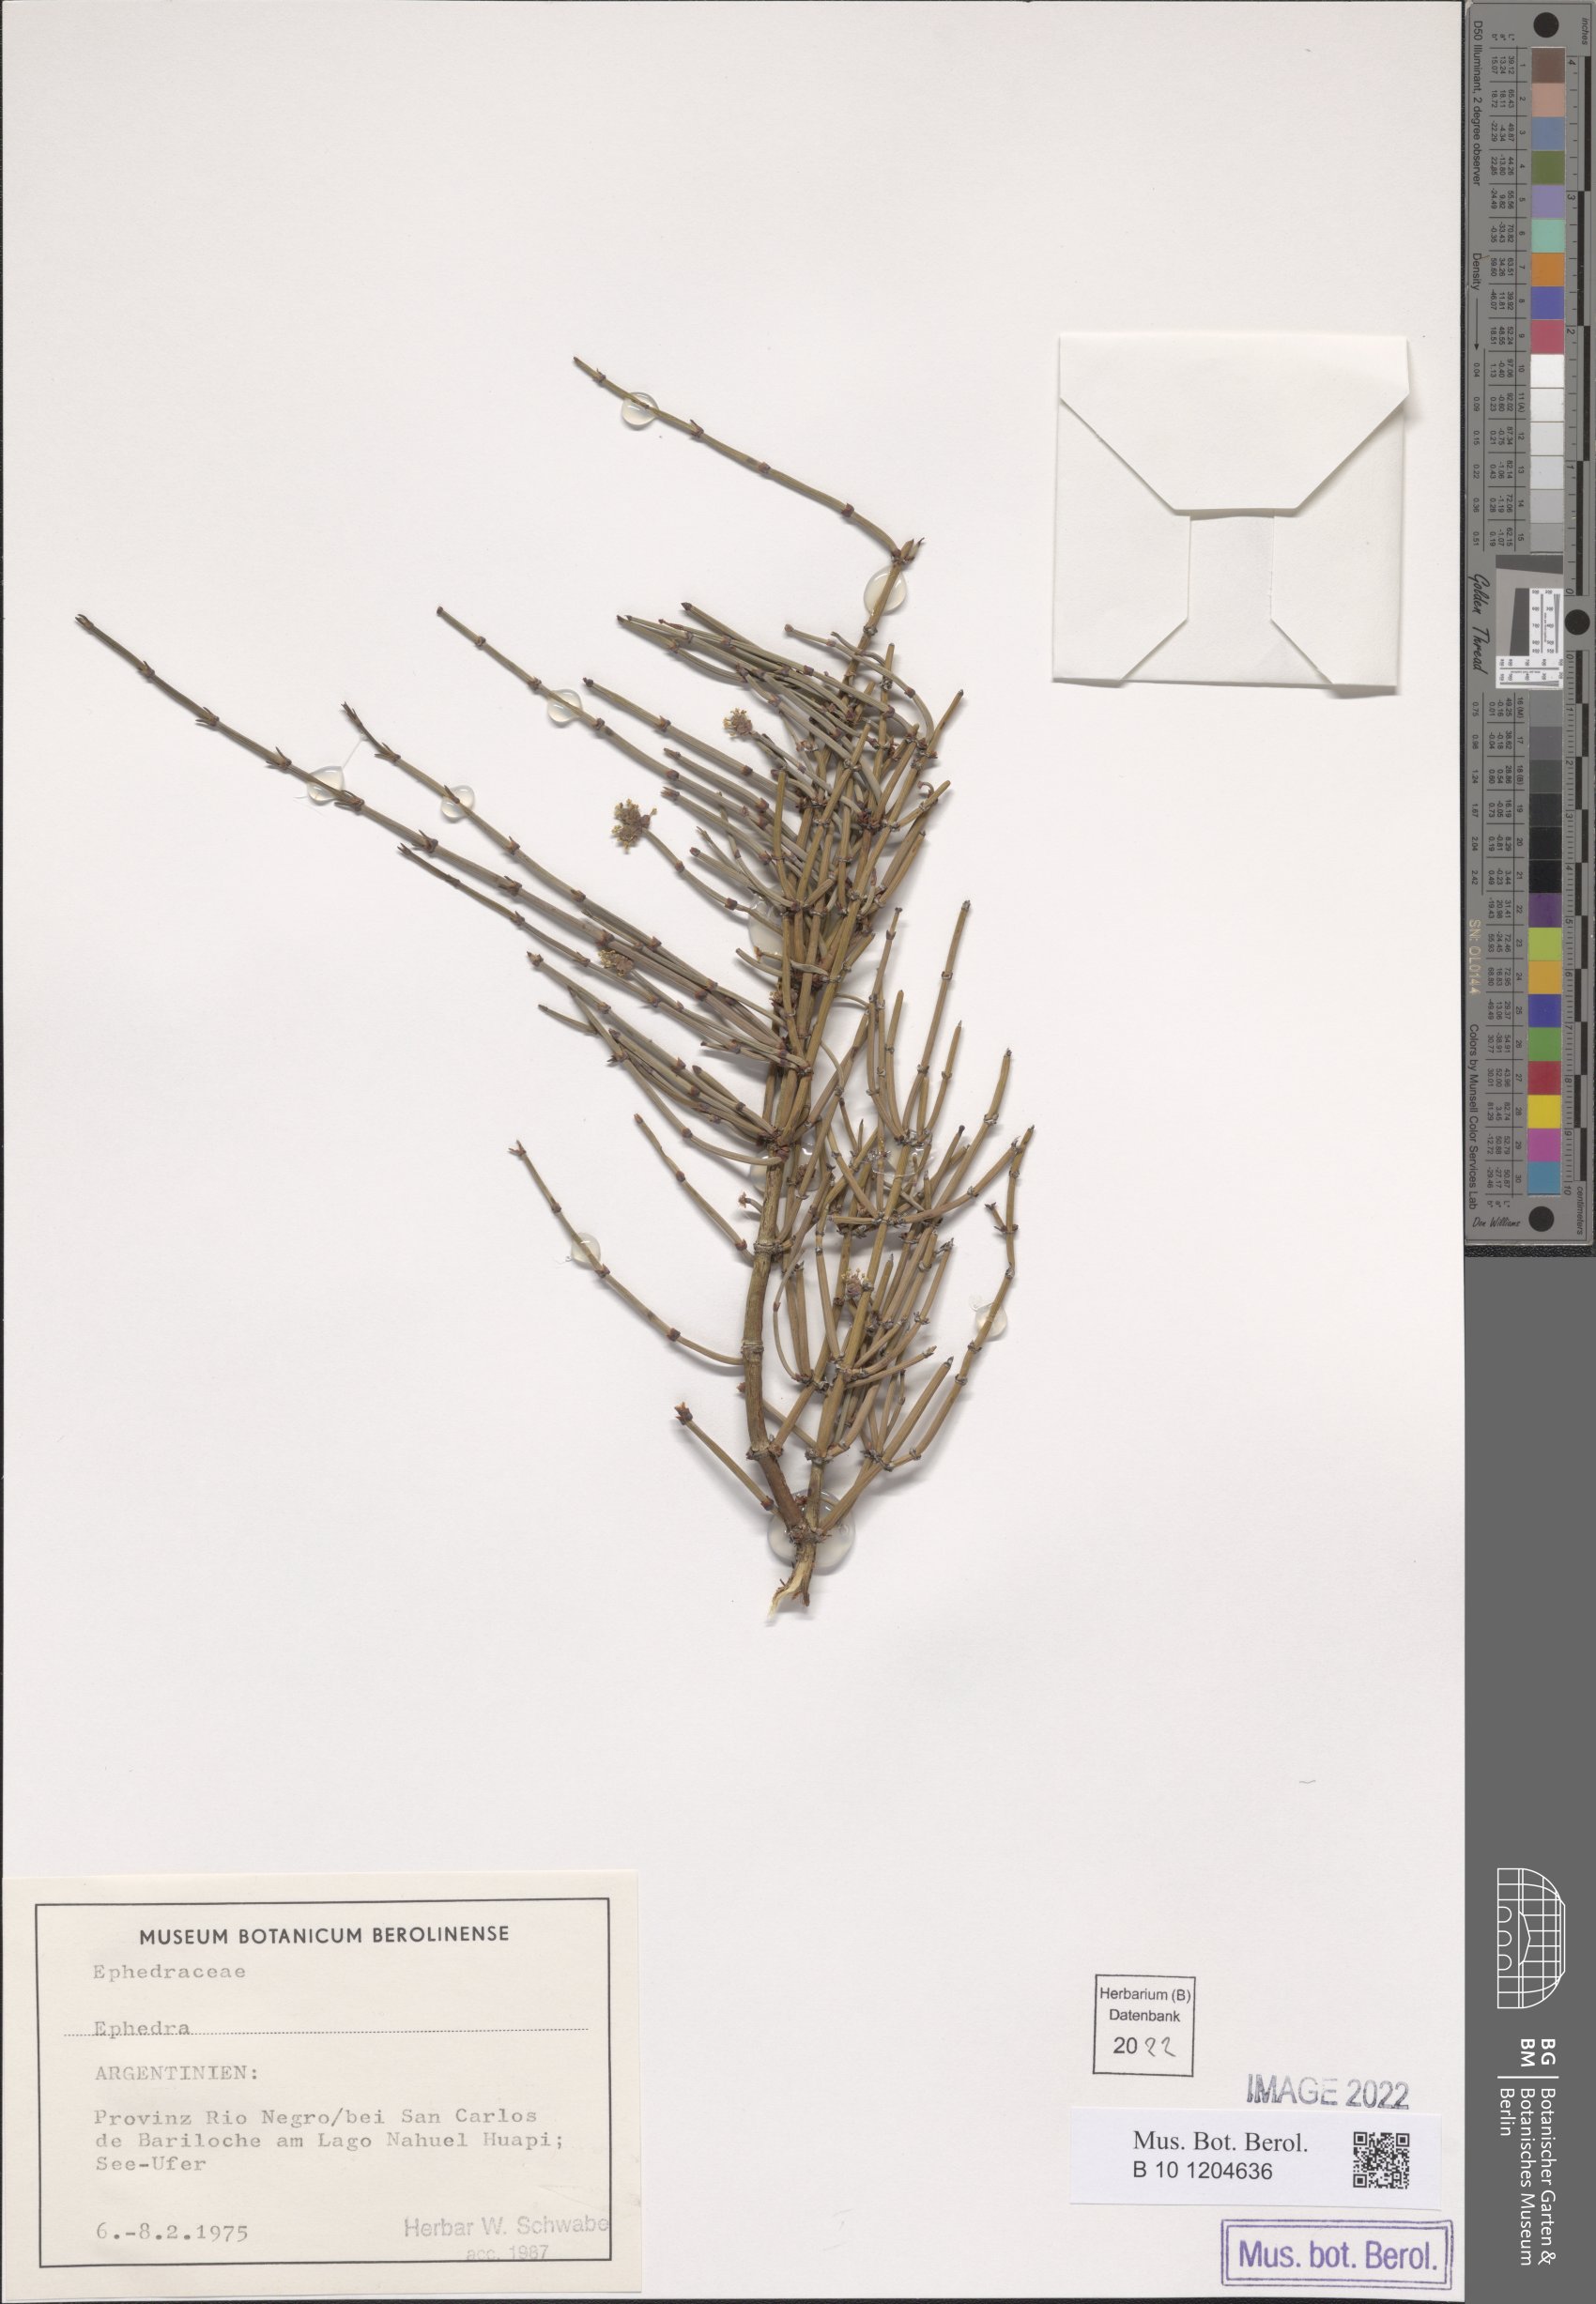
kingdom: Plantae
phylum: Tracheophyta
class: Gnetopsida
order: Ephedrales
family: Ephedraceae
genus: Ephedra
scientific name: Ephedra
